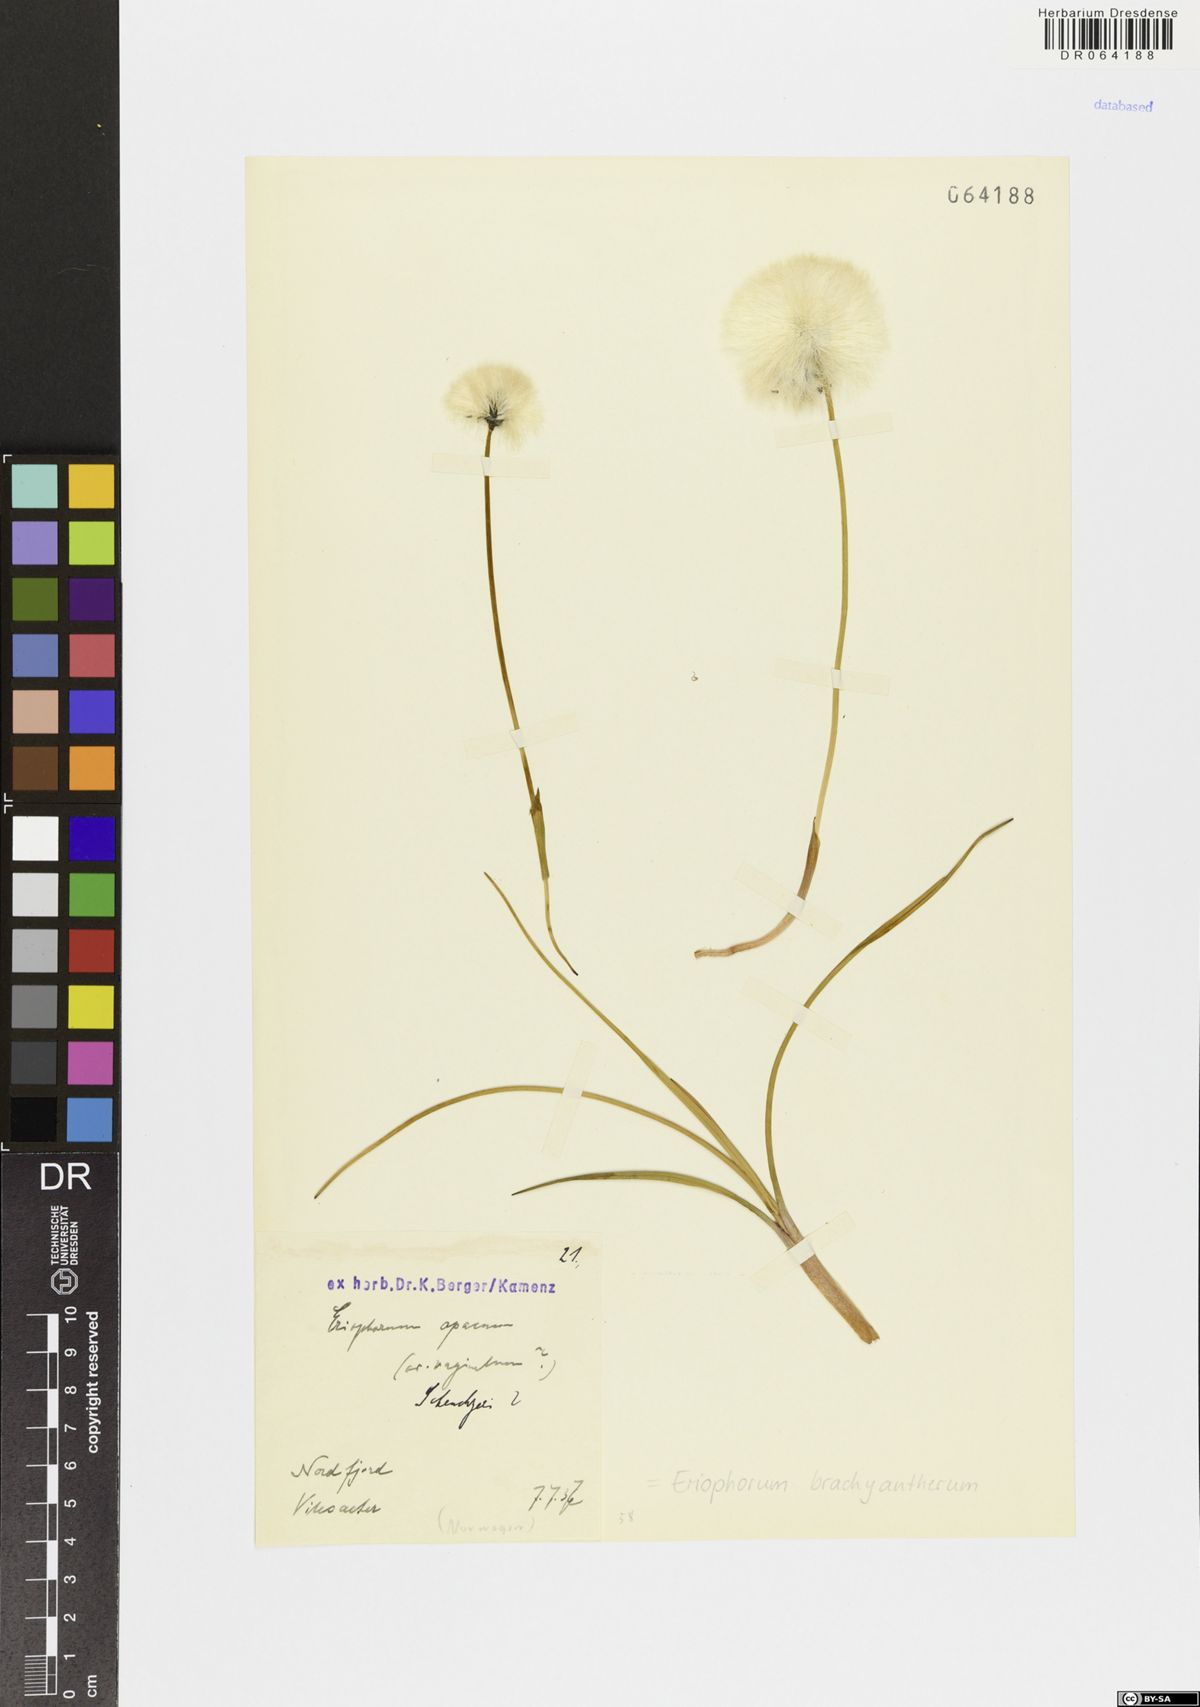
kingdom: Plantae
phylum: Tracheophyta
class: Liliopsida
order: Poales
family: Cyperaceae
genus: Eriophorum
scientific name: Eriophorum brachyantherum
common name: Closed-sheathed cottongrass
